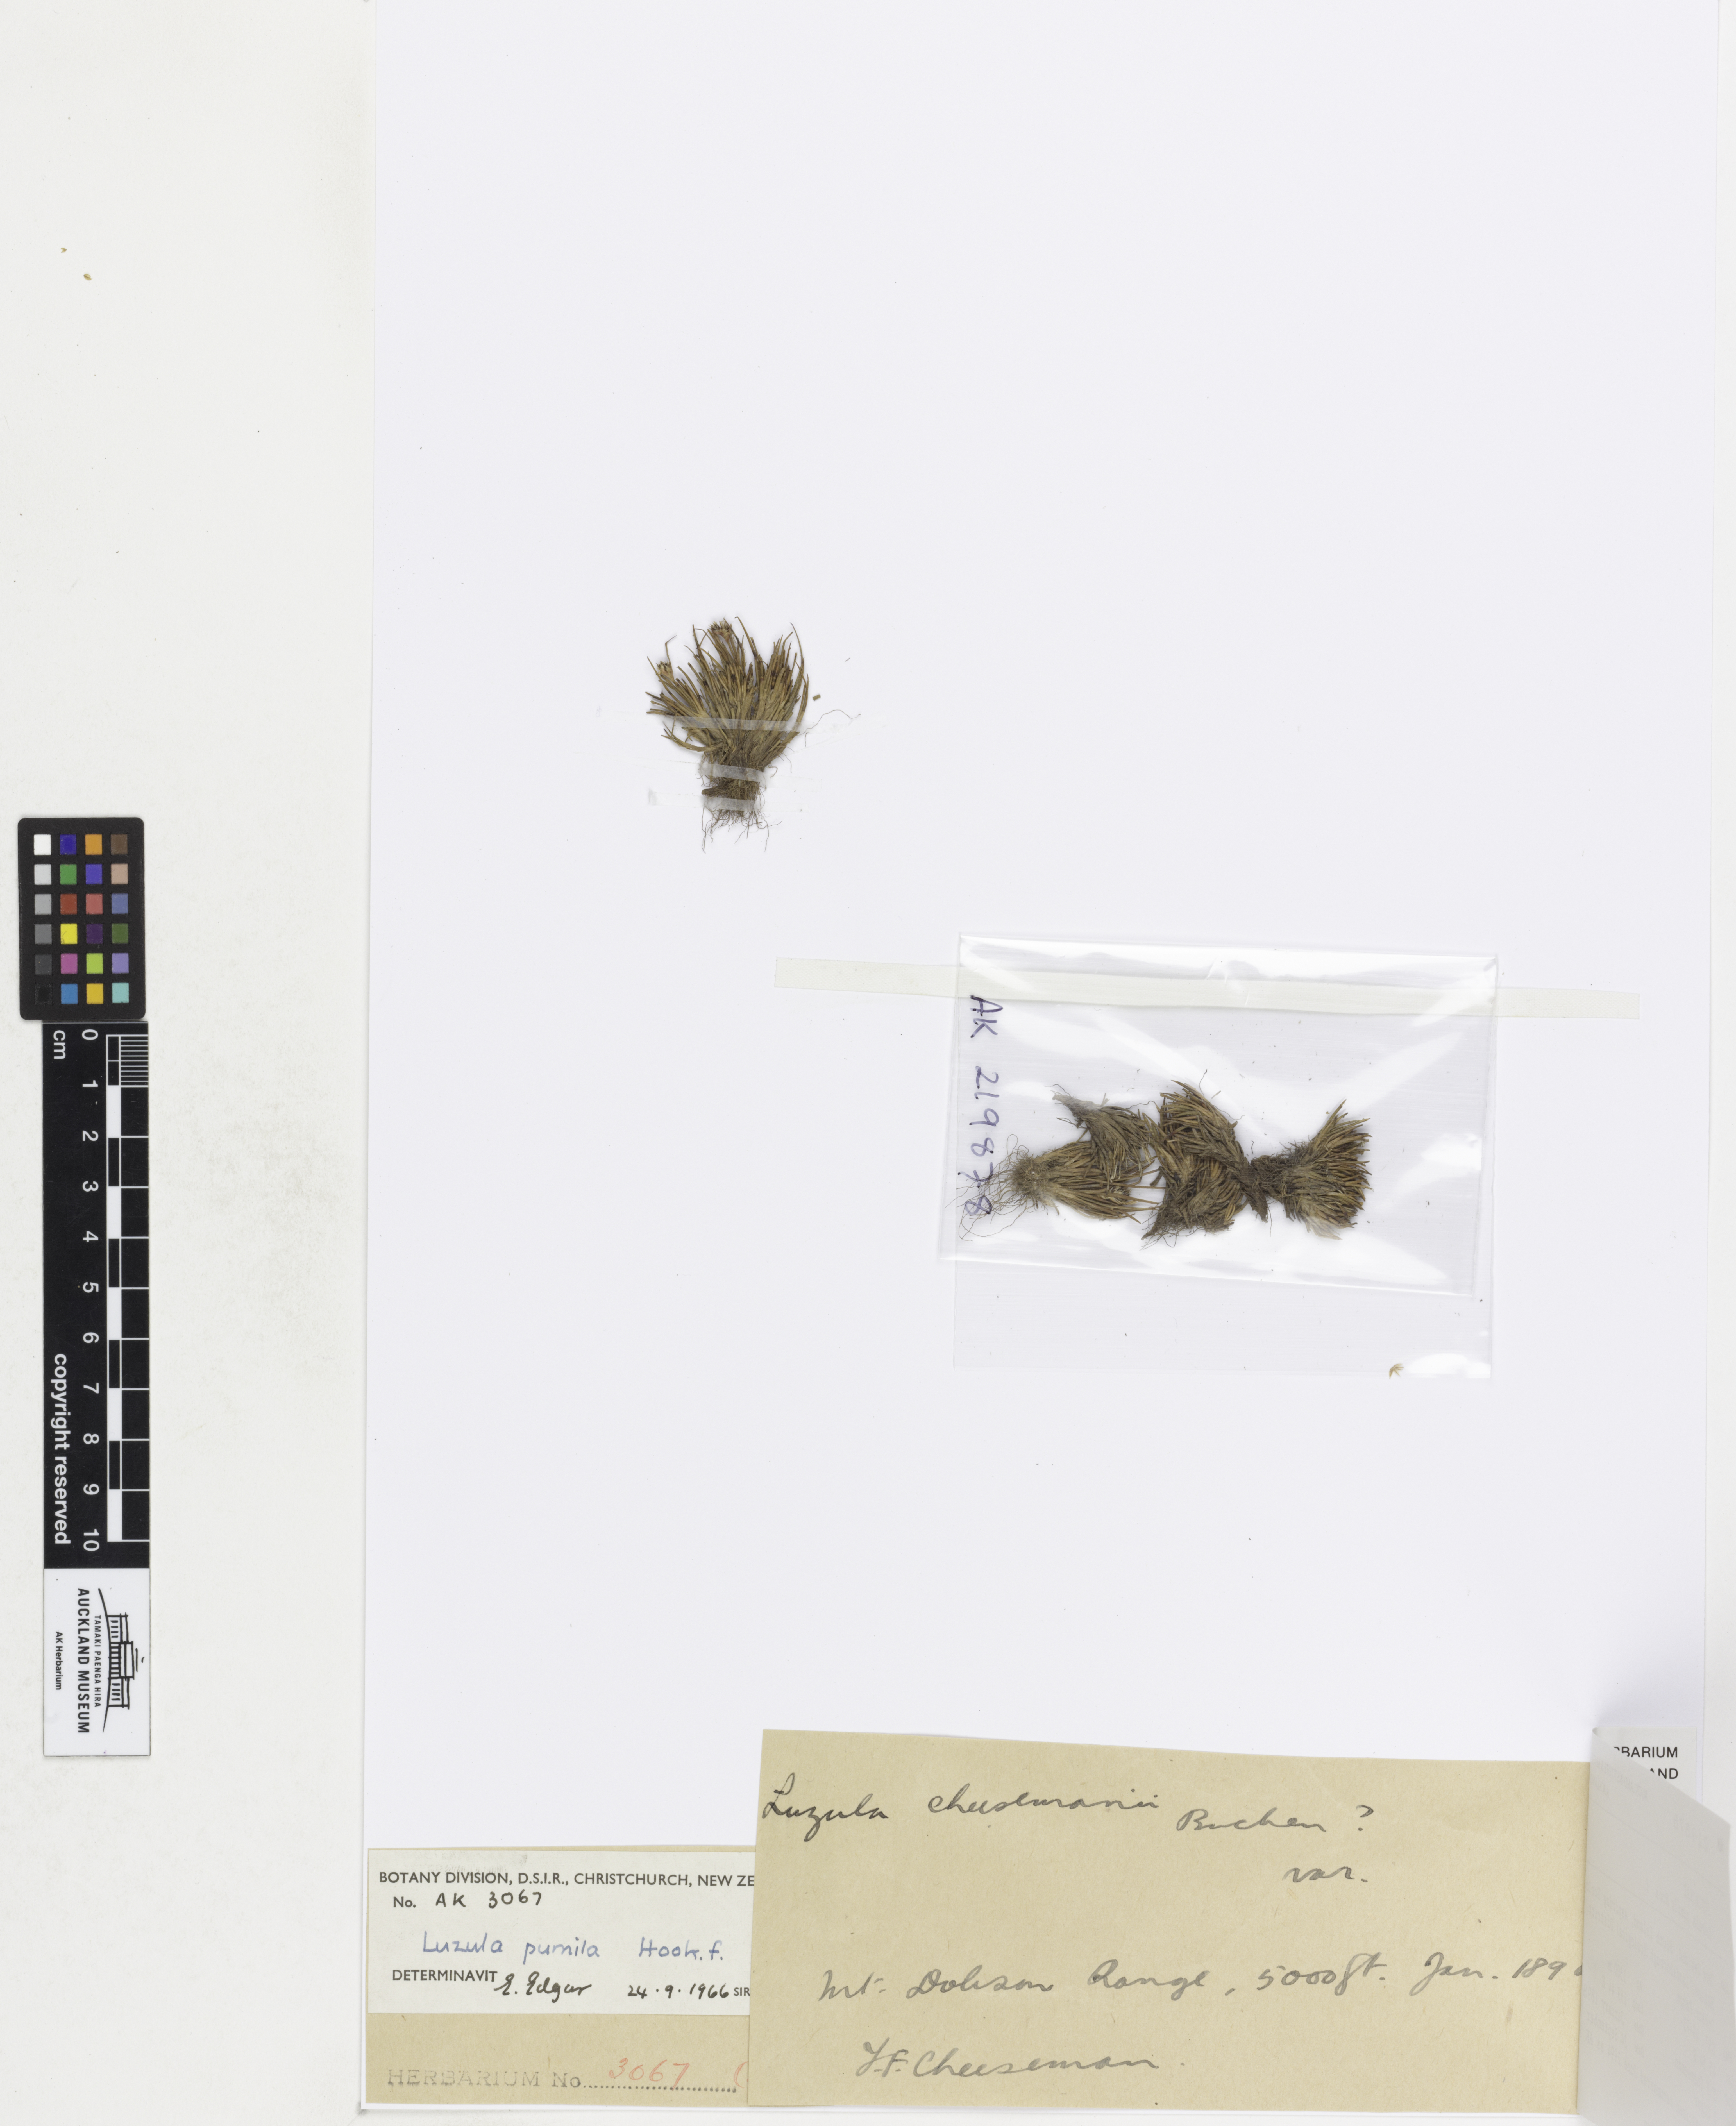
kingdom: Plantae
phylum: Tracheophyta
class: Liliopsida
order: Poales
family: Juncaceae
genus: Luzula
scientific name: Luzula pumila
